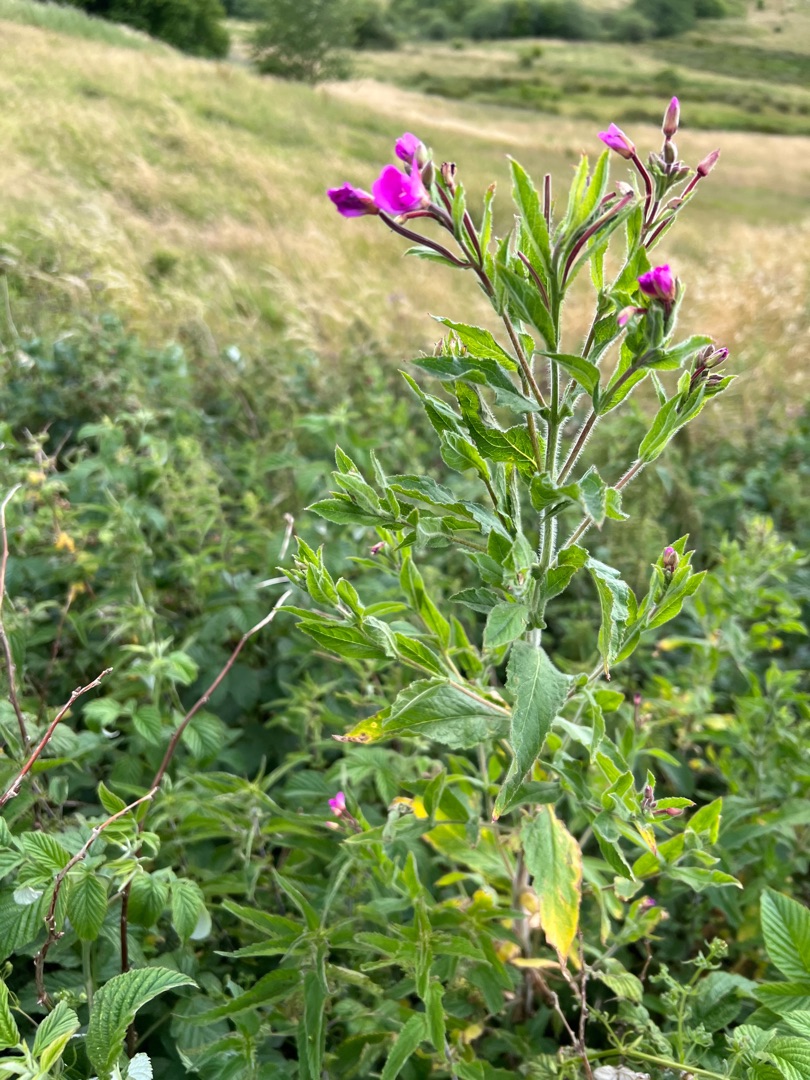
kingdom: Plantae
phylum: Tracheophyta
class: Magnoliopsida
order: Myrtales
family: Onagraceae
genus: Epilobium
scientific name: Epilobium hirsutum
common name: Lådden dueurt
